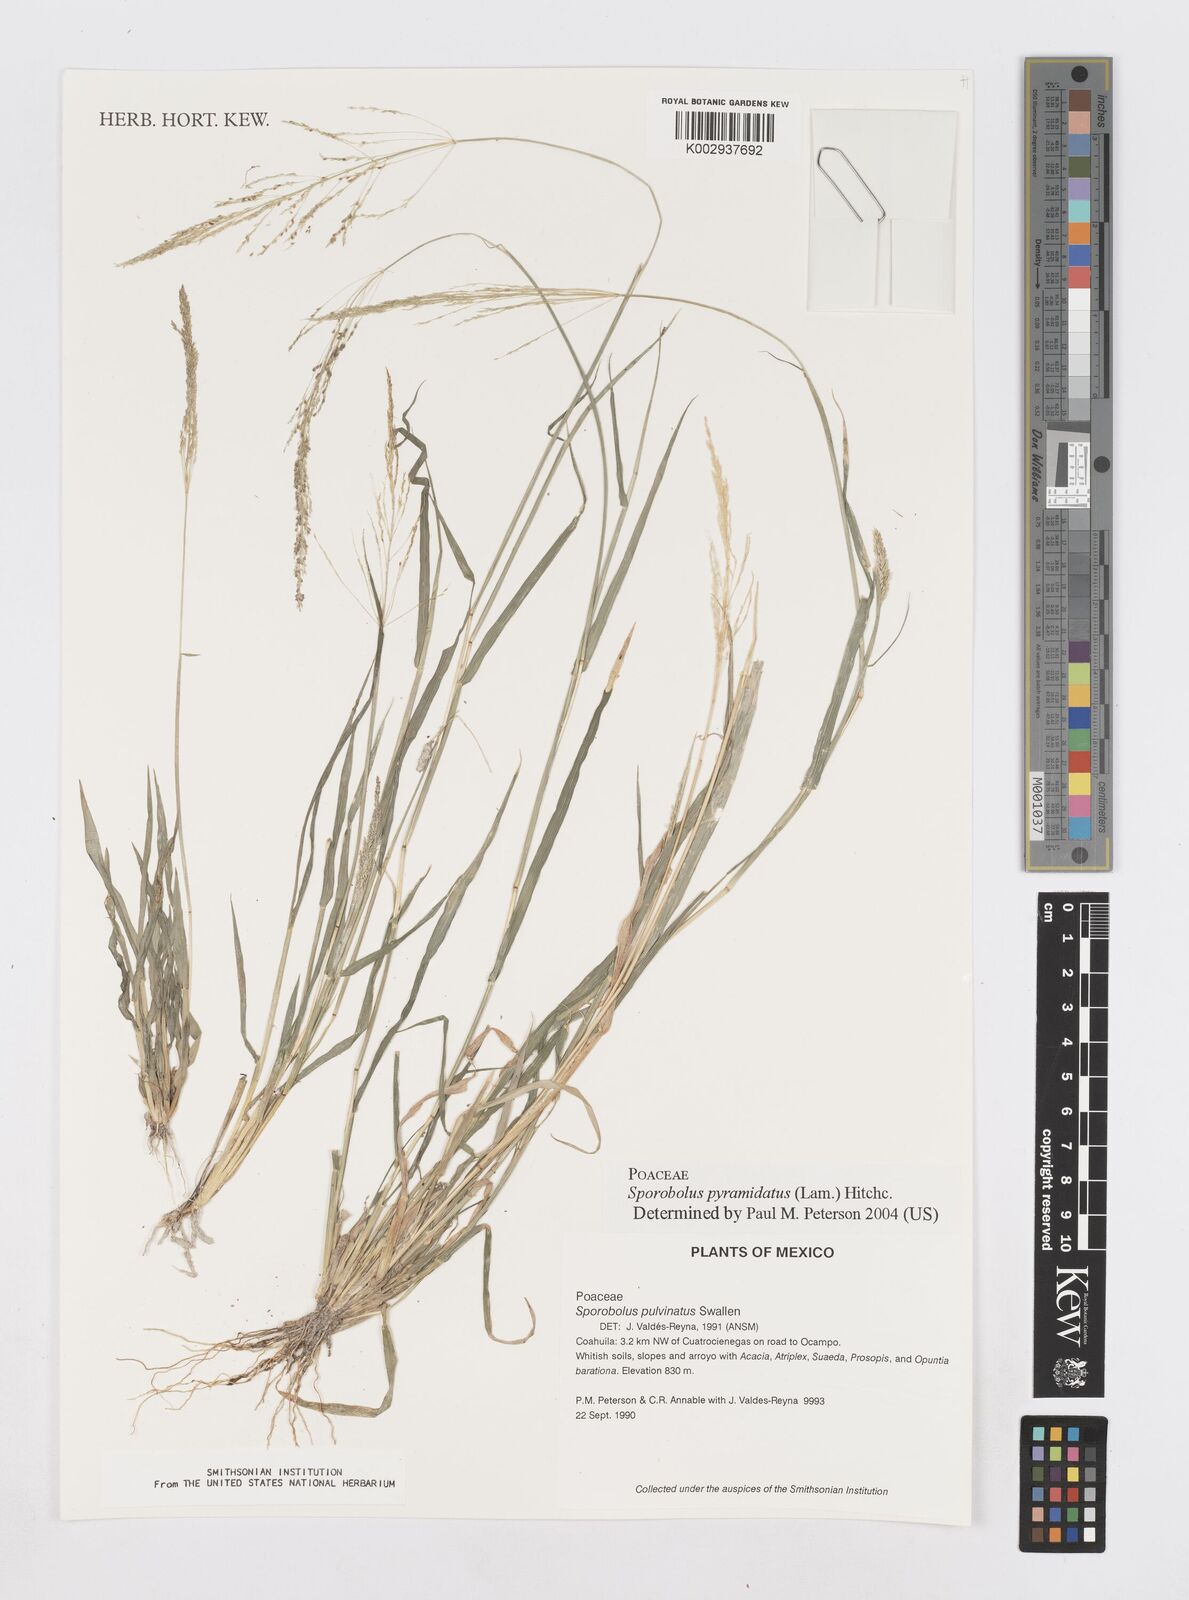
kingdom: Plantae
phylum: Tracheophyta
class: Liliopsida
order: Poales
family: Poaceae
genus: Sporobolus
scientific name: Sporobolus pyramidatus
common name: Whorled dropseed
